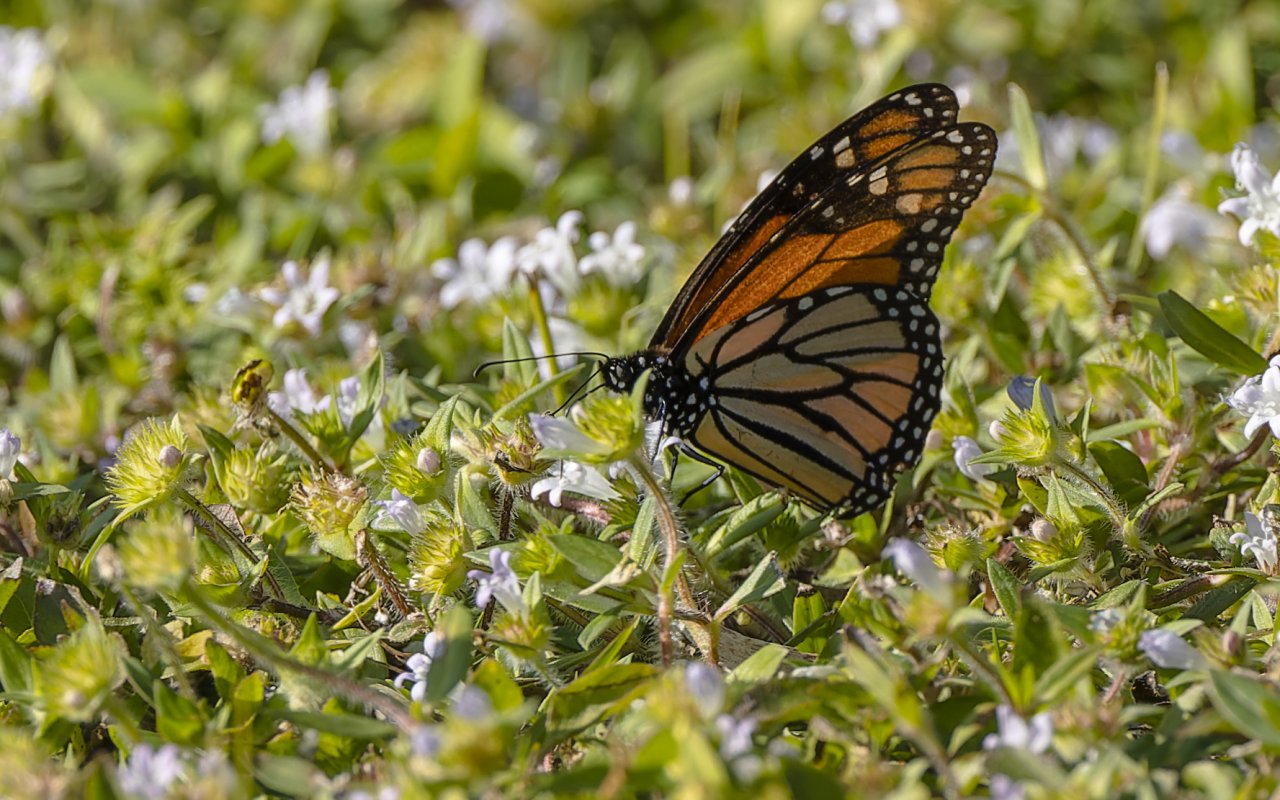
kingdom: Animalia
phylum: Arthropoda
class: Insecta
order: Lepidoptera
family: Nymphalidae
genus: Danaus
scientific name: Danaus plexippus
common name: Monarch
